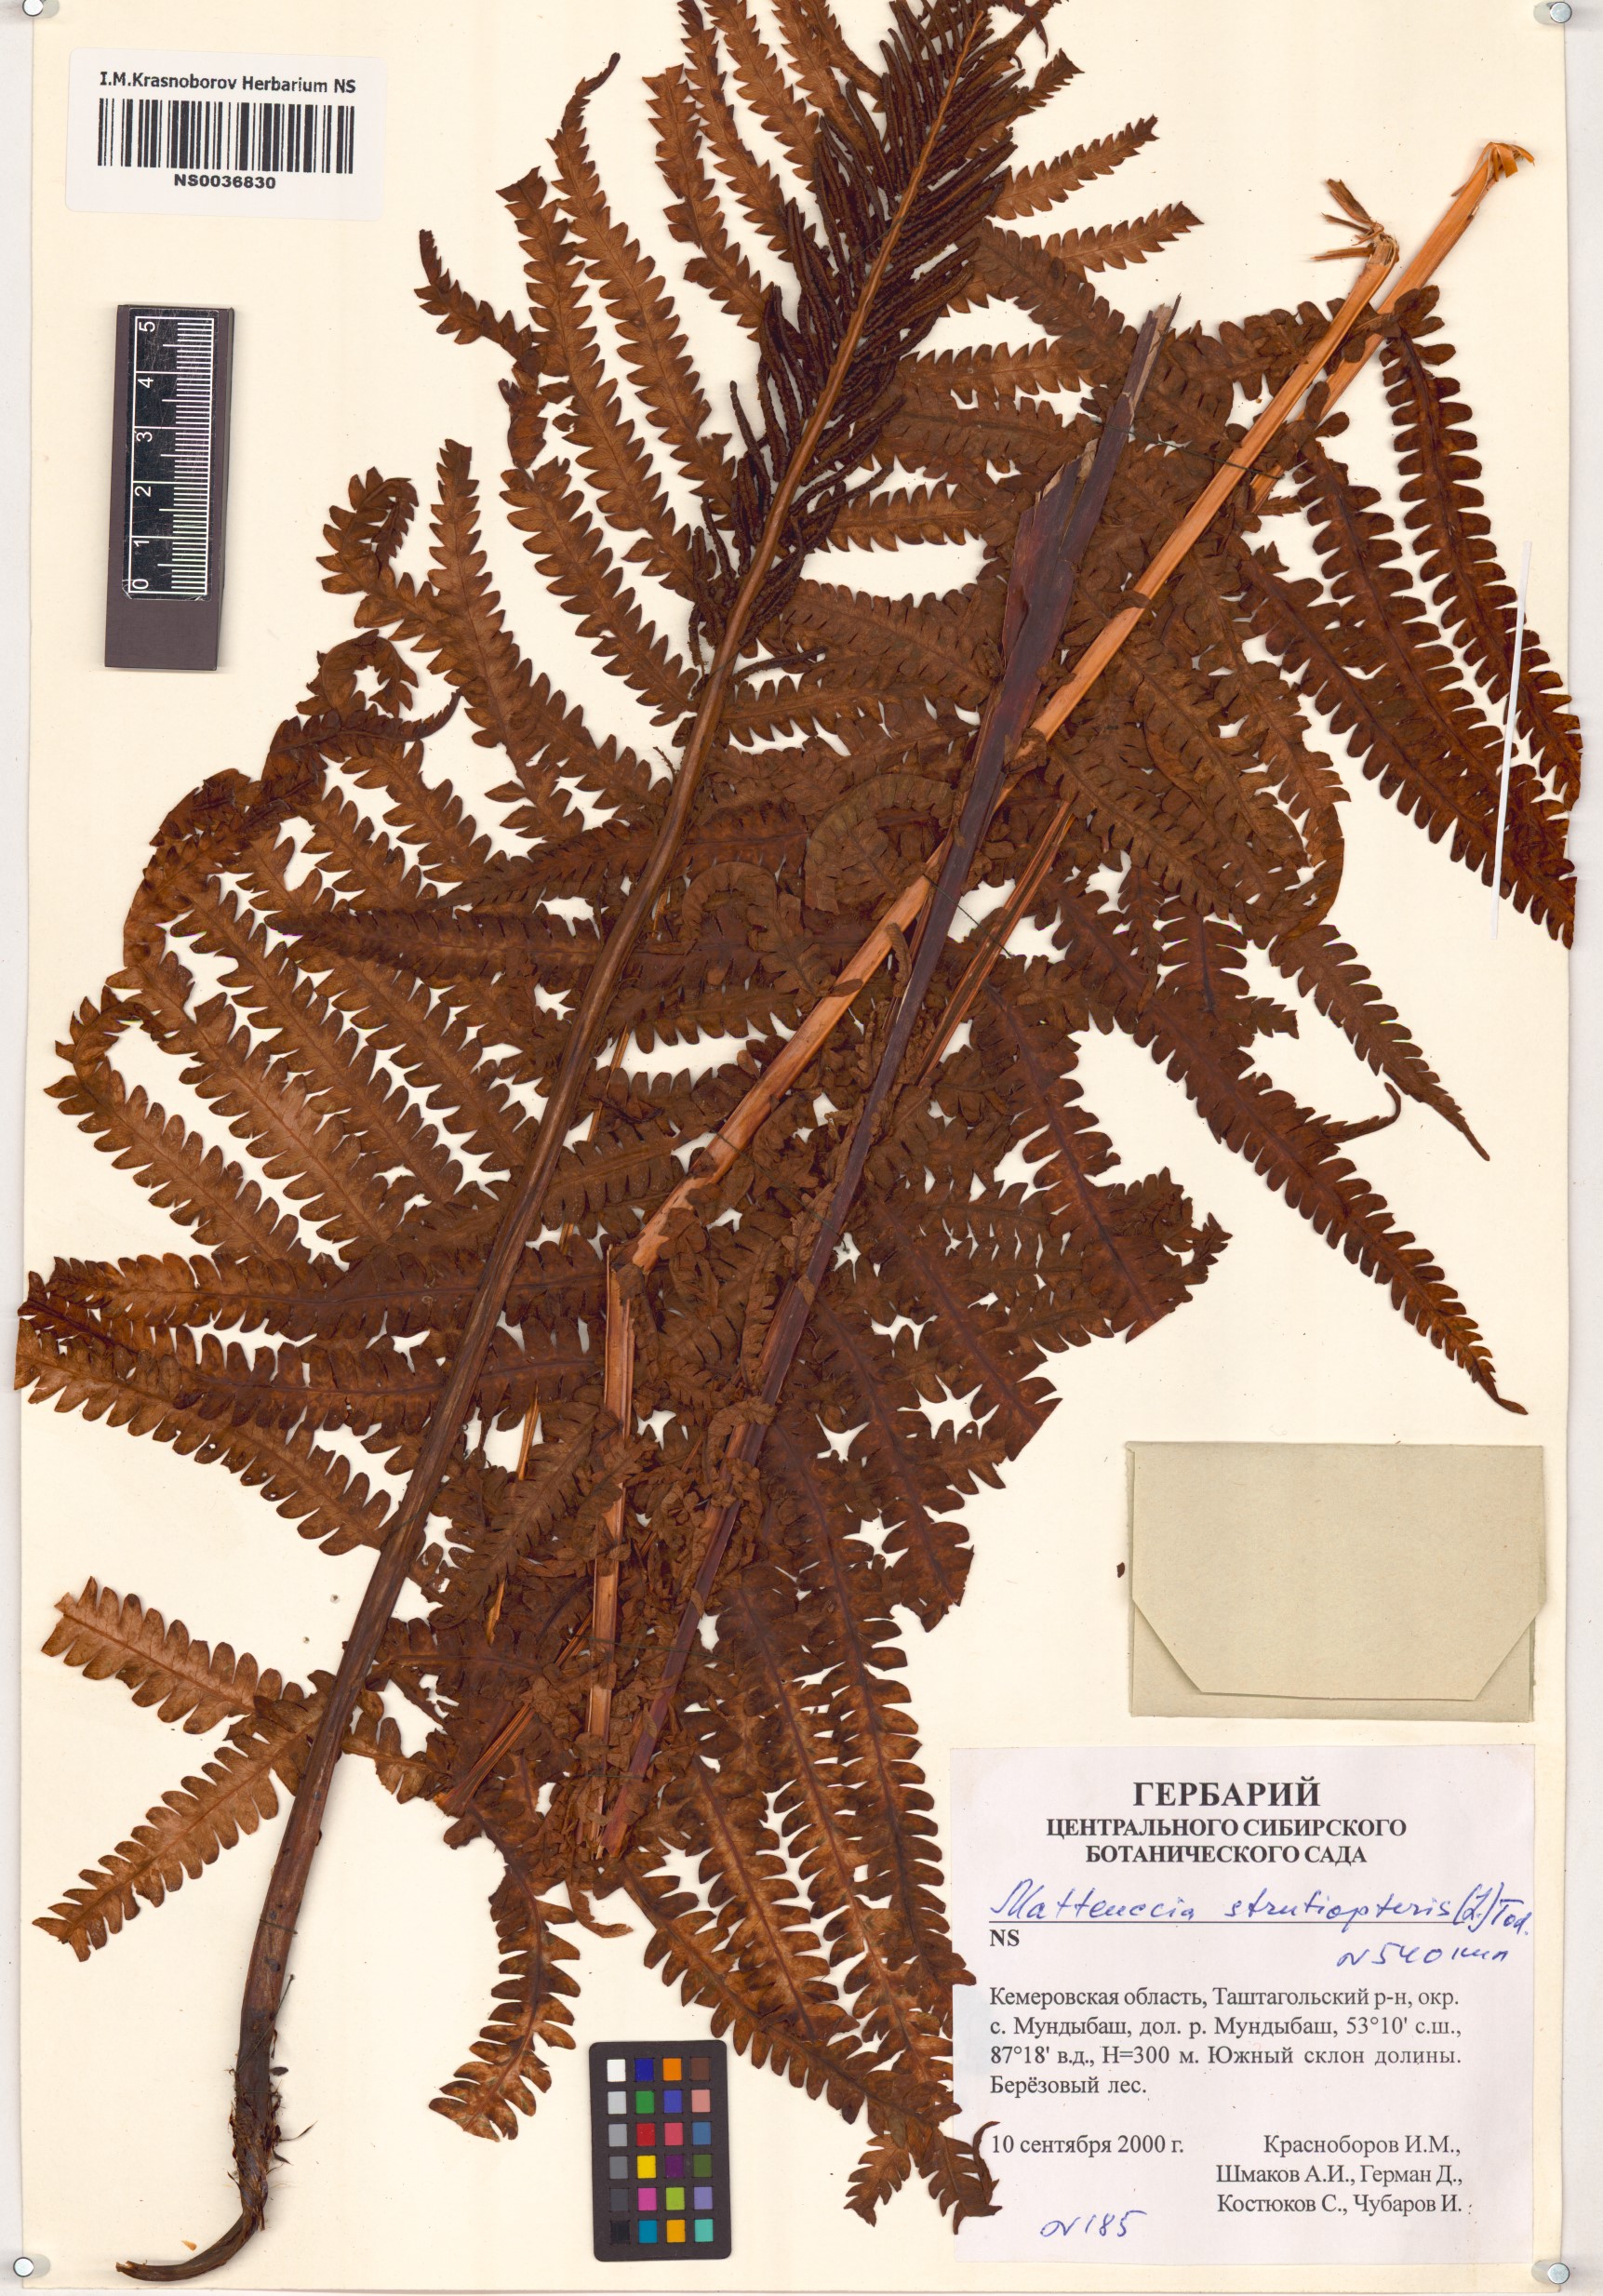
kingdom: Plantae
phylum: Tracheophyta
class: Polypodiopsida
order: Polypodiales
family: Onocleaceae
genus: Matteuccia
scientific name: Matteuccia struthiopteris
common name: Ostrich fern
